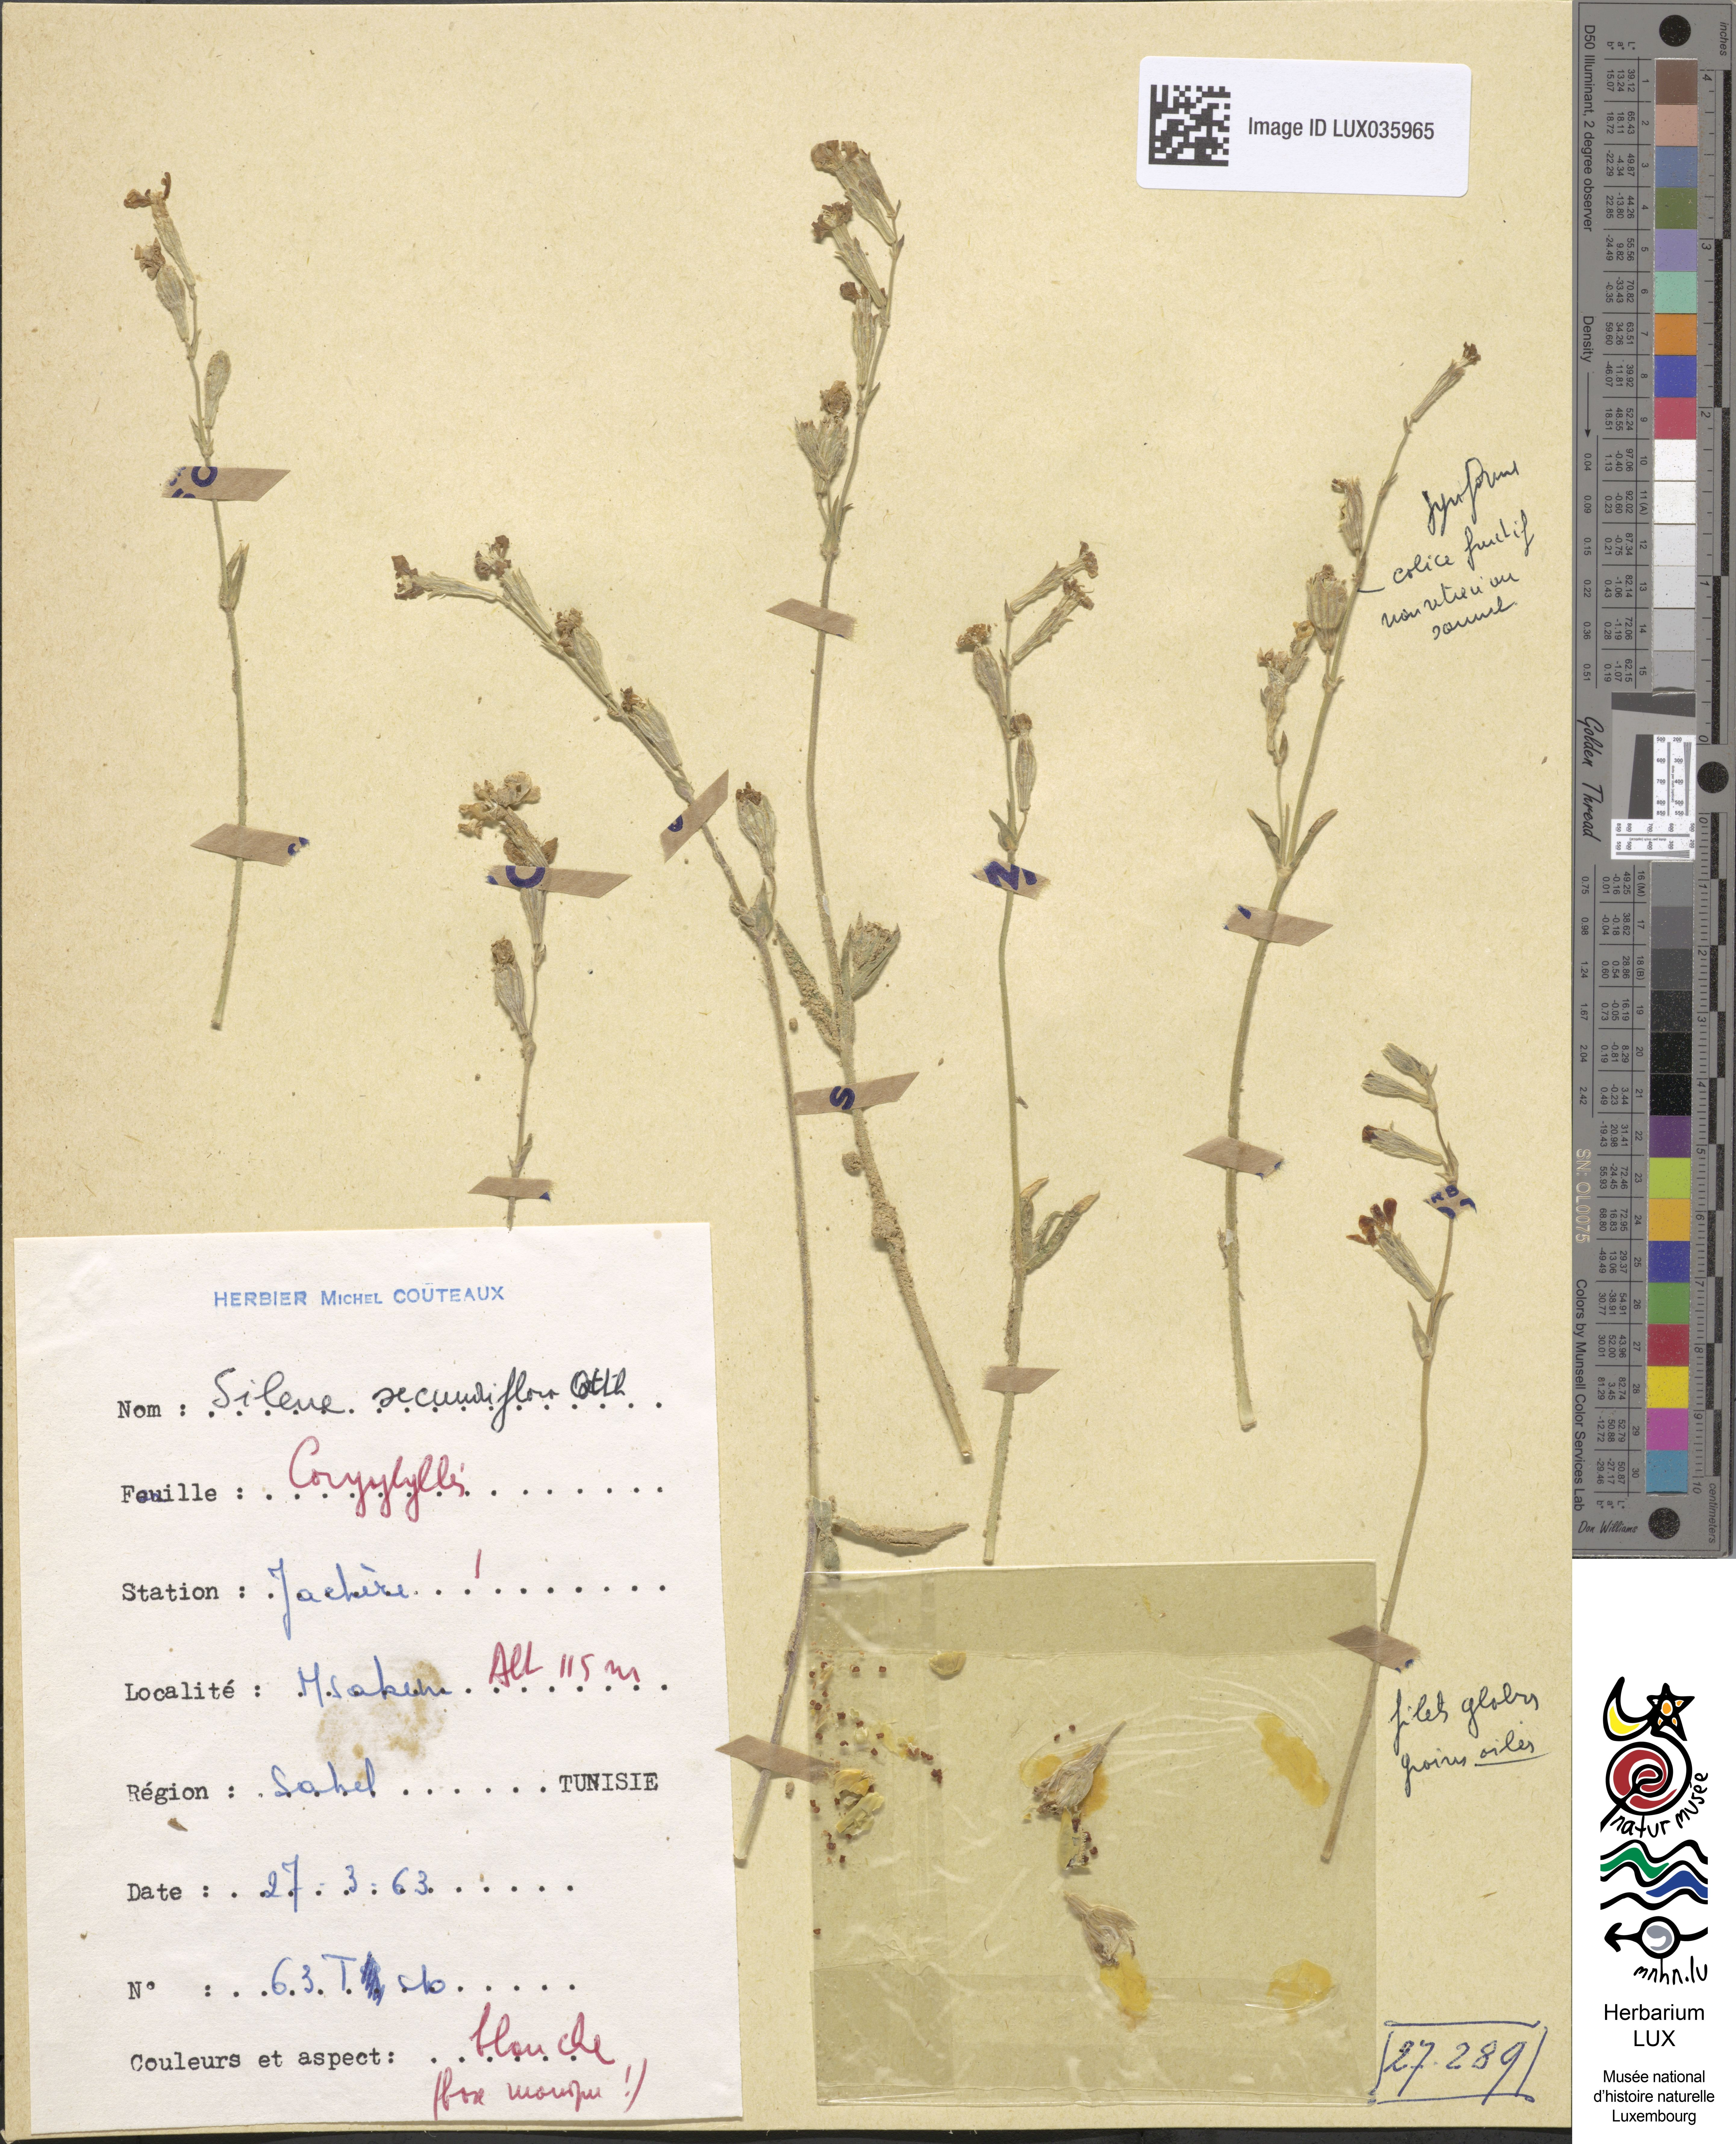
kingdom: Plantae
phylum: Tracheophyta
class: Magnoliopsida
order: Caryophyllales
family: Caryophyllaceae
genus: Silene
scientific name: Silene secundiflora
